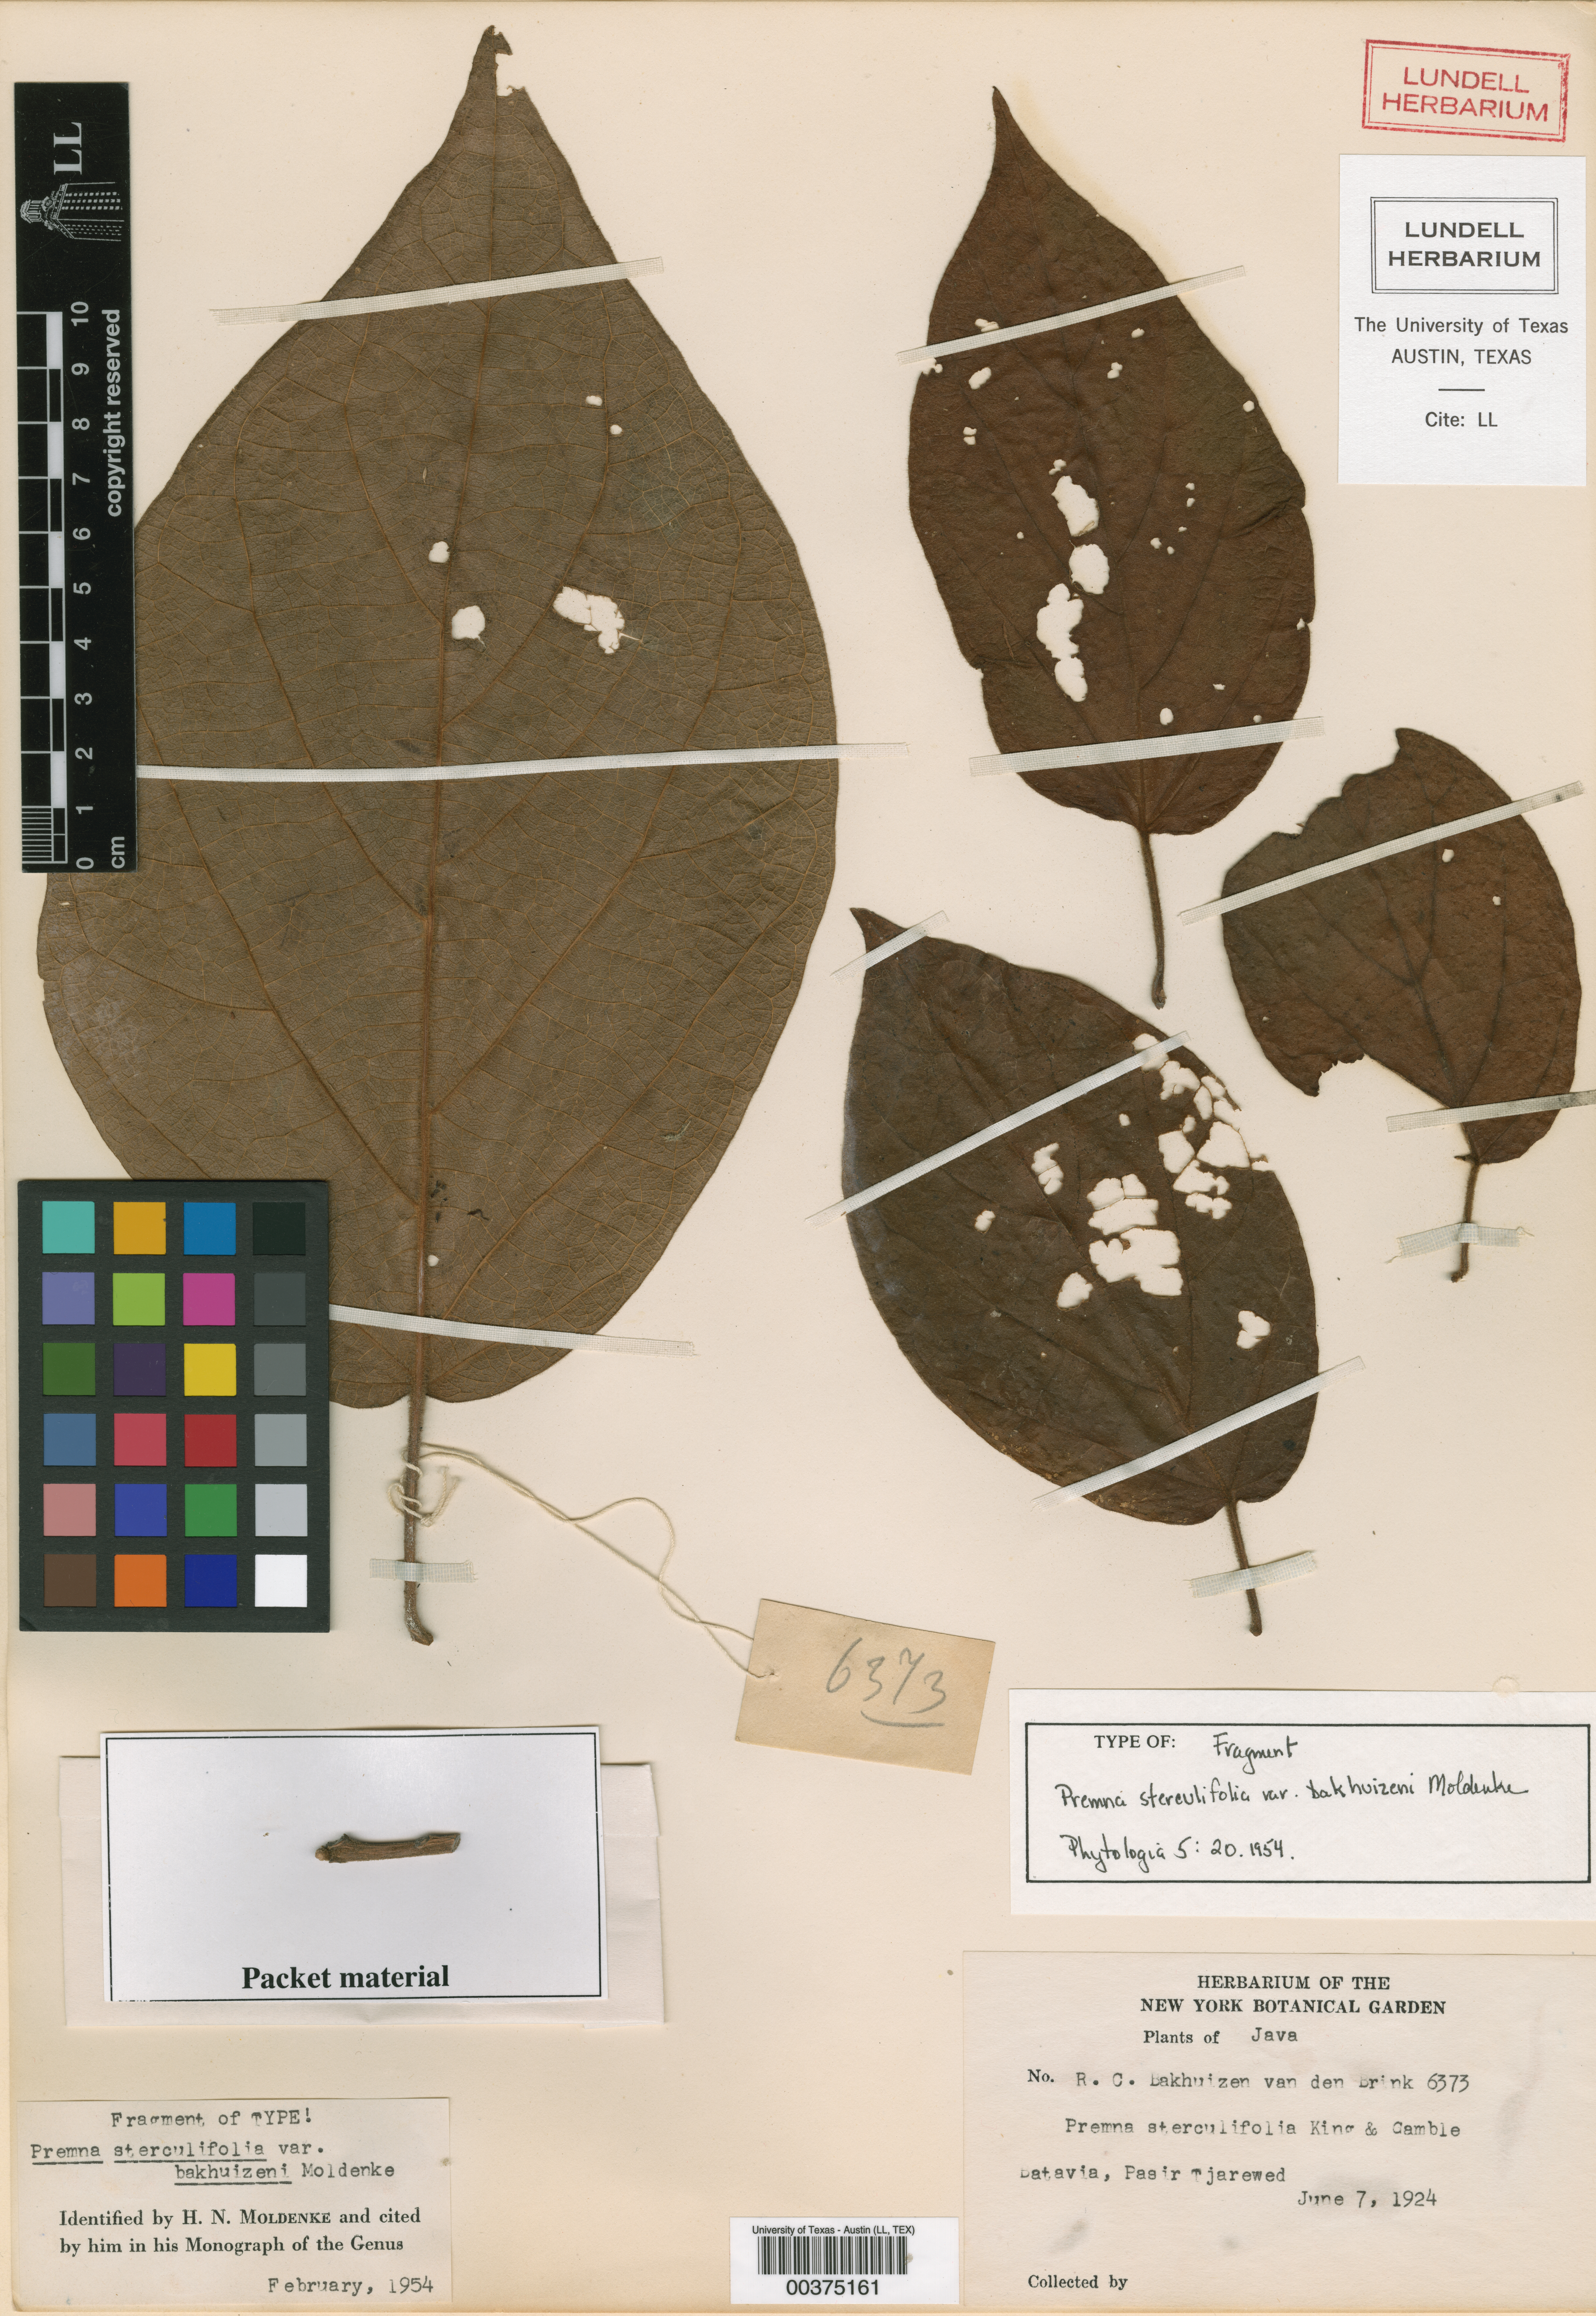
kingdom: Plantae
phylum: Tracheophyta
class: Magnoliopsida
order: Malpighiales
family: Hypericaceae
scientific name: Hypericaceae
